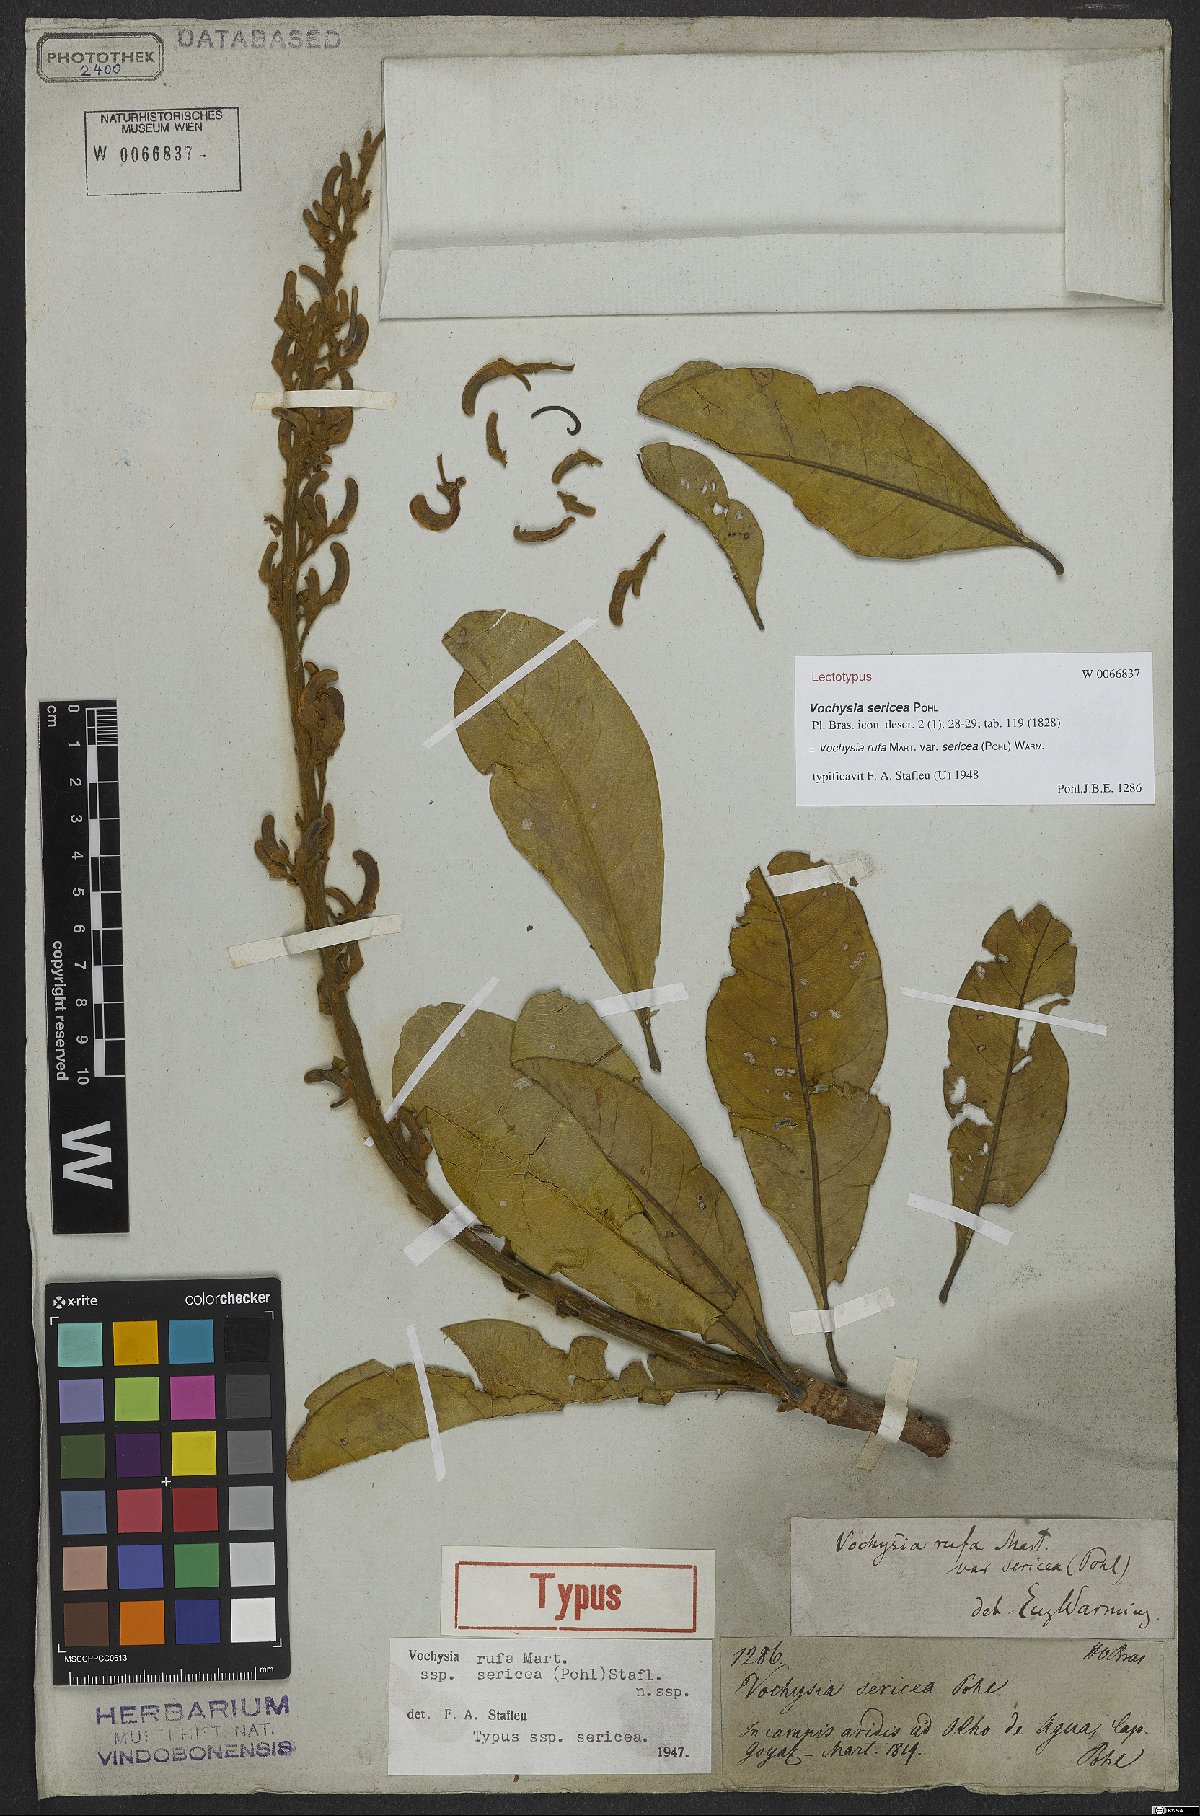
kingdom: Plantae
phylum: Tracheophyta
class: Magnoliopsida
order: Myrtales
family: Vochysiaceae
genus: Vochysia
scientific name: Vochysia rufa
